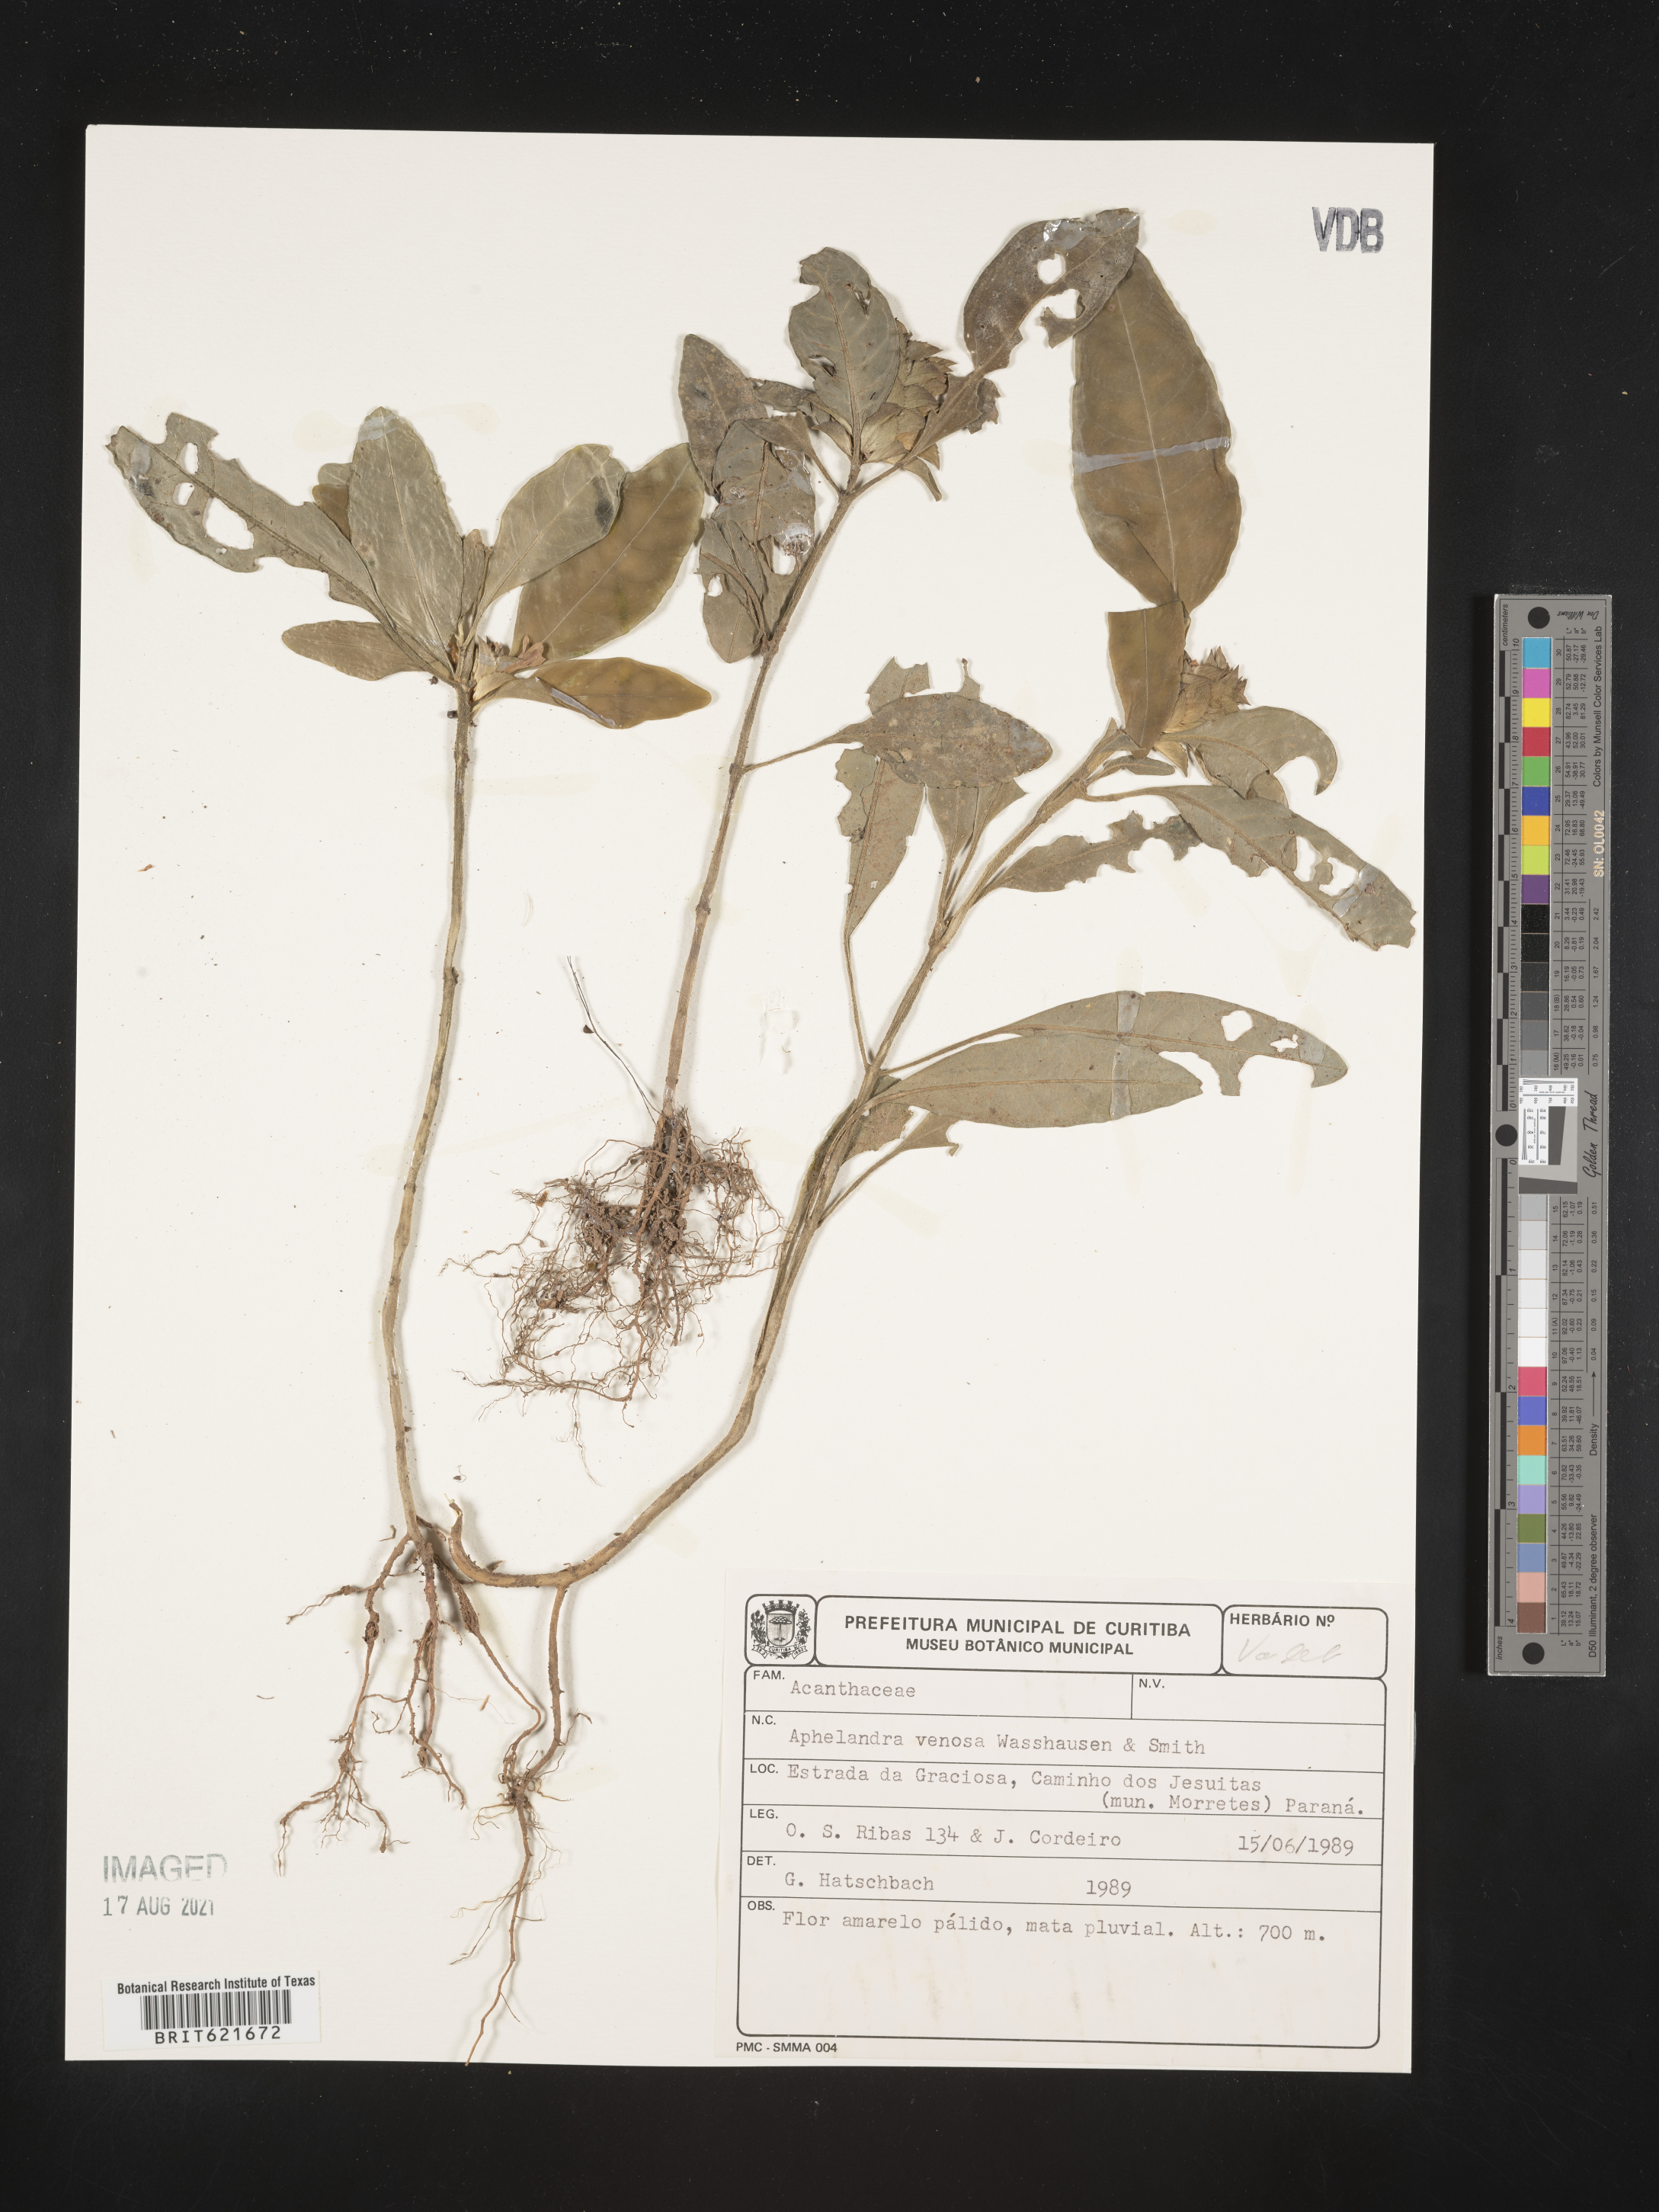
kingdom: Plantae
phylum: Tracheophyta
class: Magnoliopsida
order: Lamiales
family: Acanthaceae
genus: Aphelandra
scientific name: Aphelandra ornata
